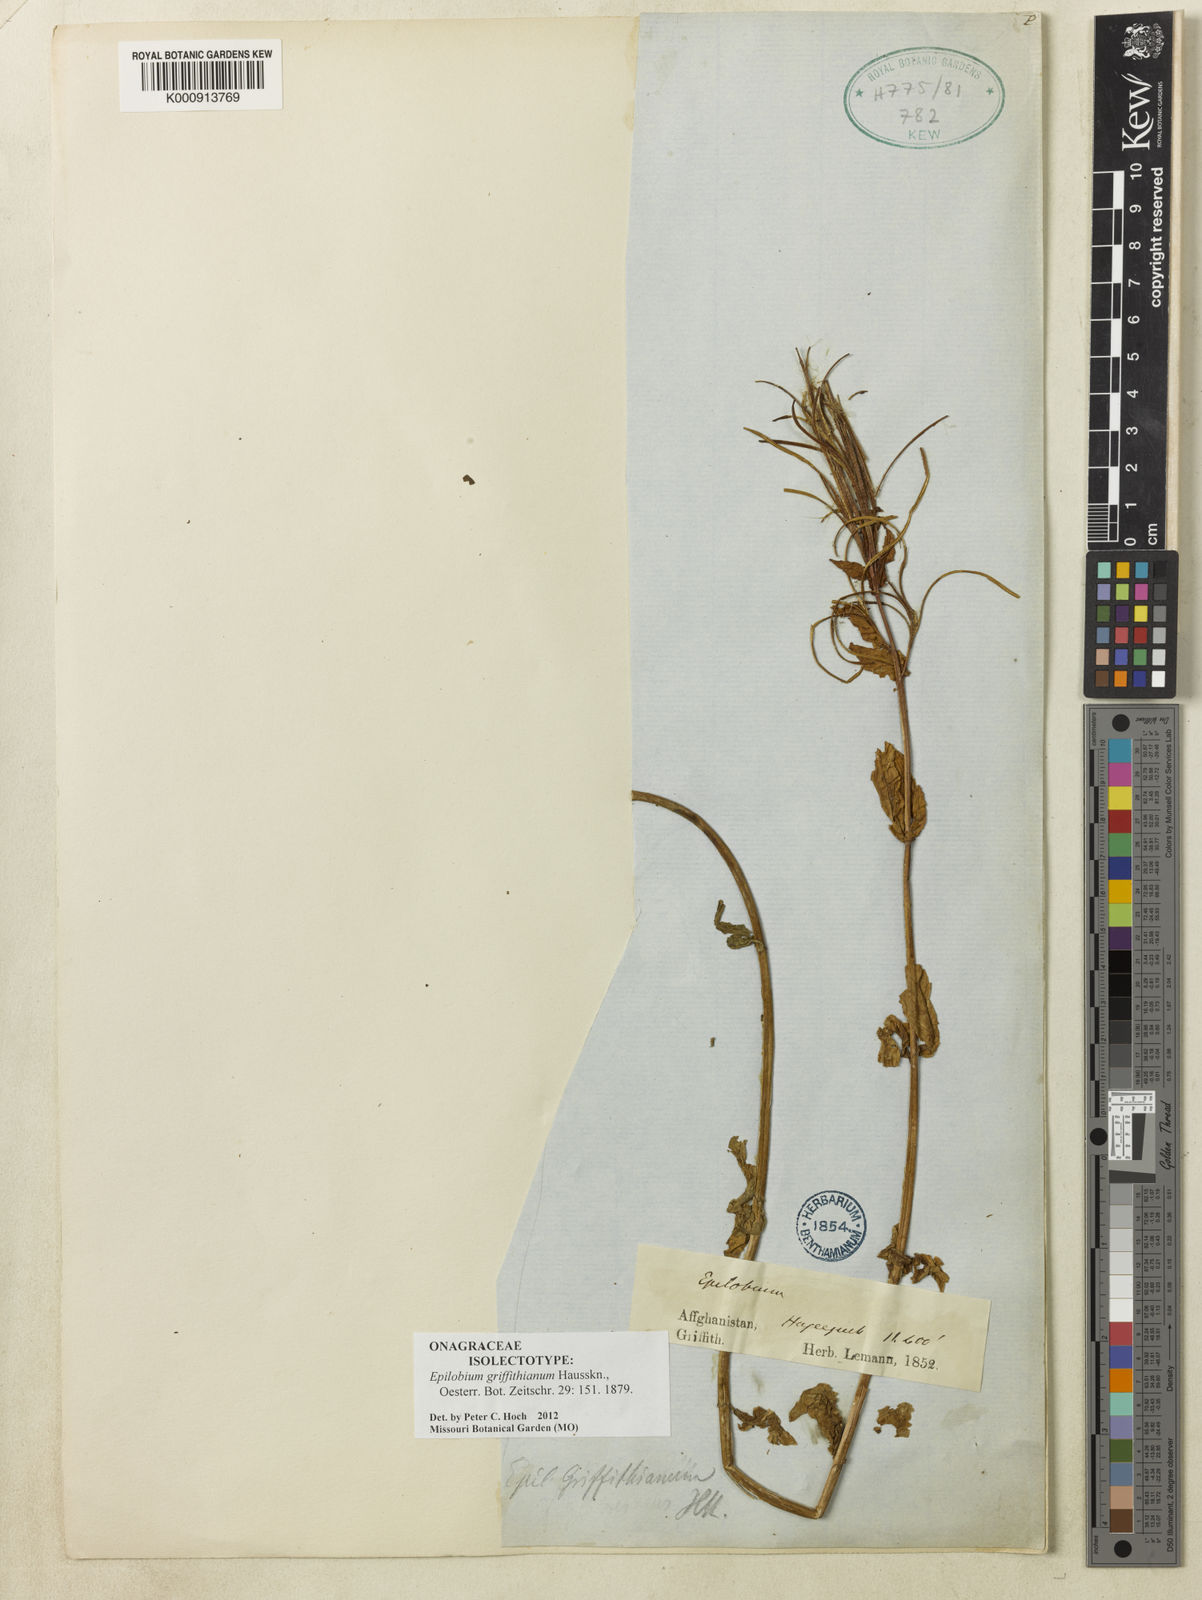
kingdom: Plantae
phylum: Tracheophyta
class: Magnoliopsida
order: Myrtales
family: Onagraceae
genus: Epilobium
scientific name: Epilobium griffithianum
